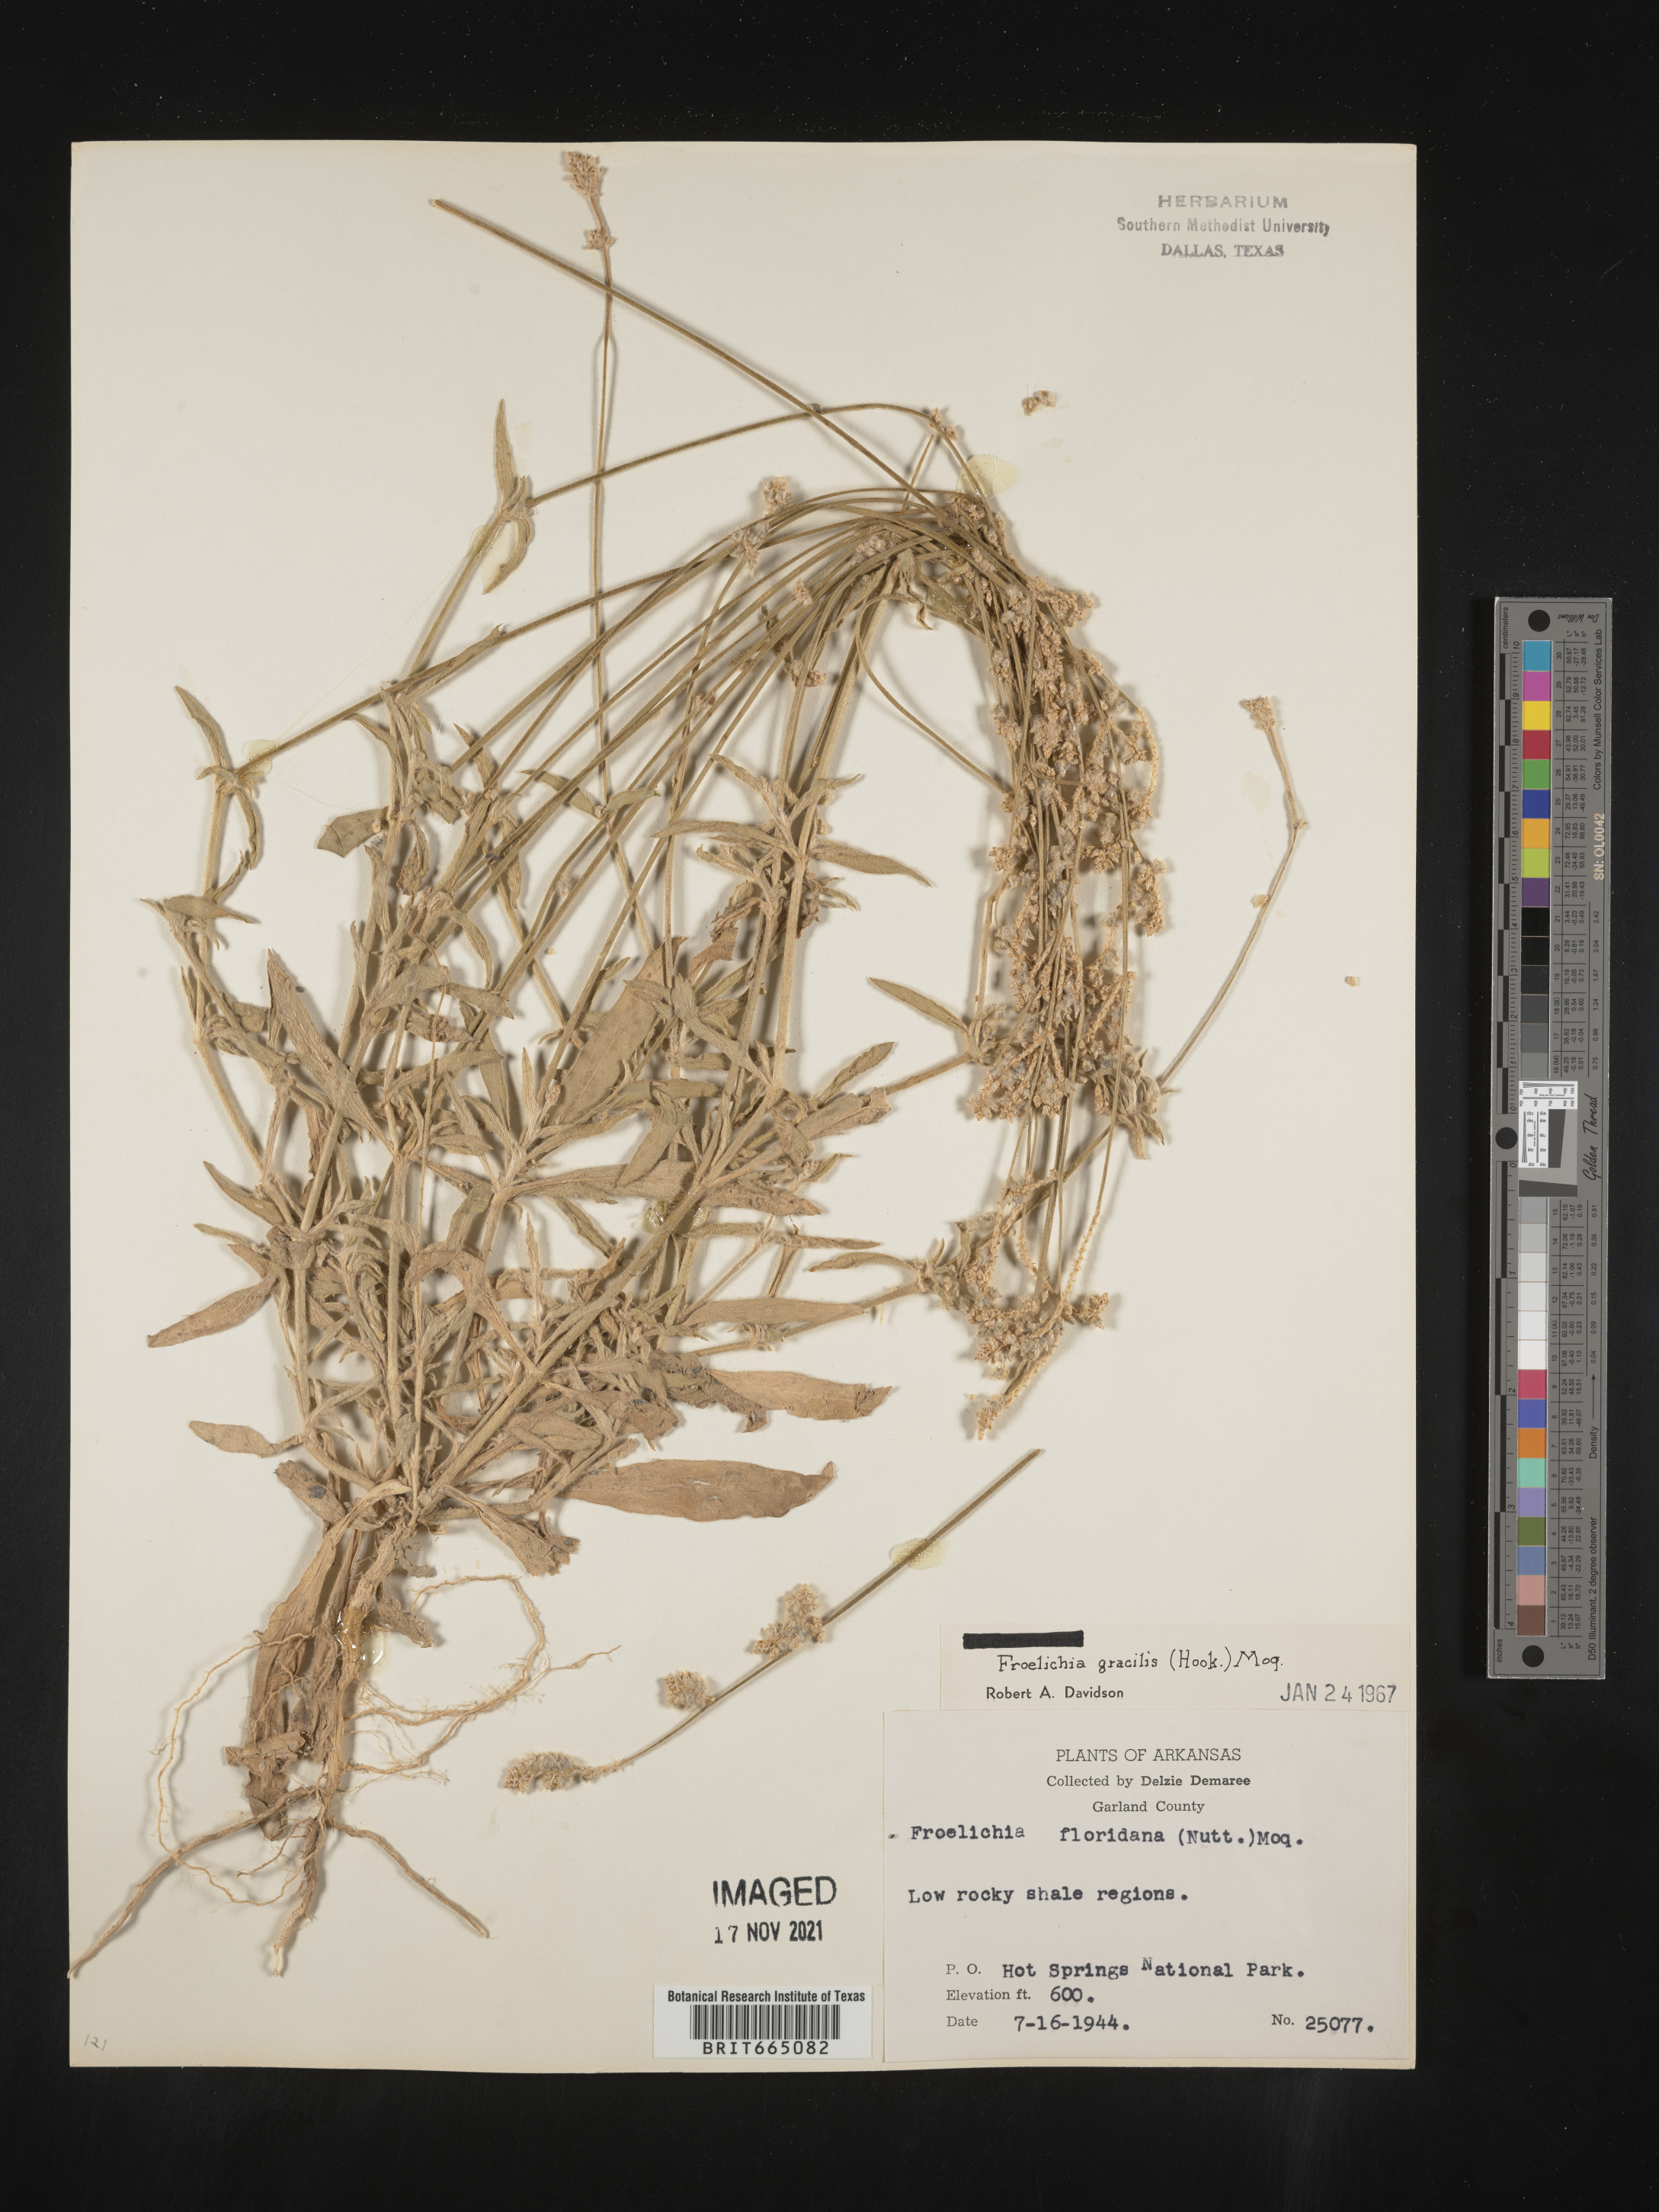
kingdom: Plantae
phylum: Tracheophyta
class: Magnoliopsida
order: Caryophyllales
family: Amaranthaceae
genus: Froelichia
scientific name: Froelichia gracilis
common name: Slender cottonweed
